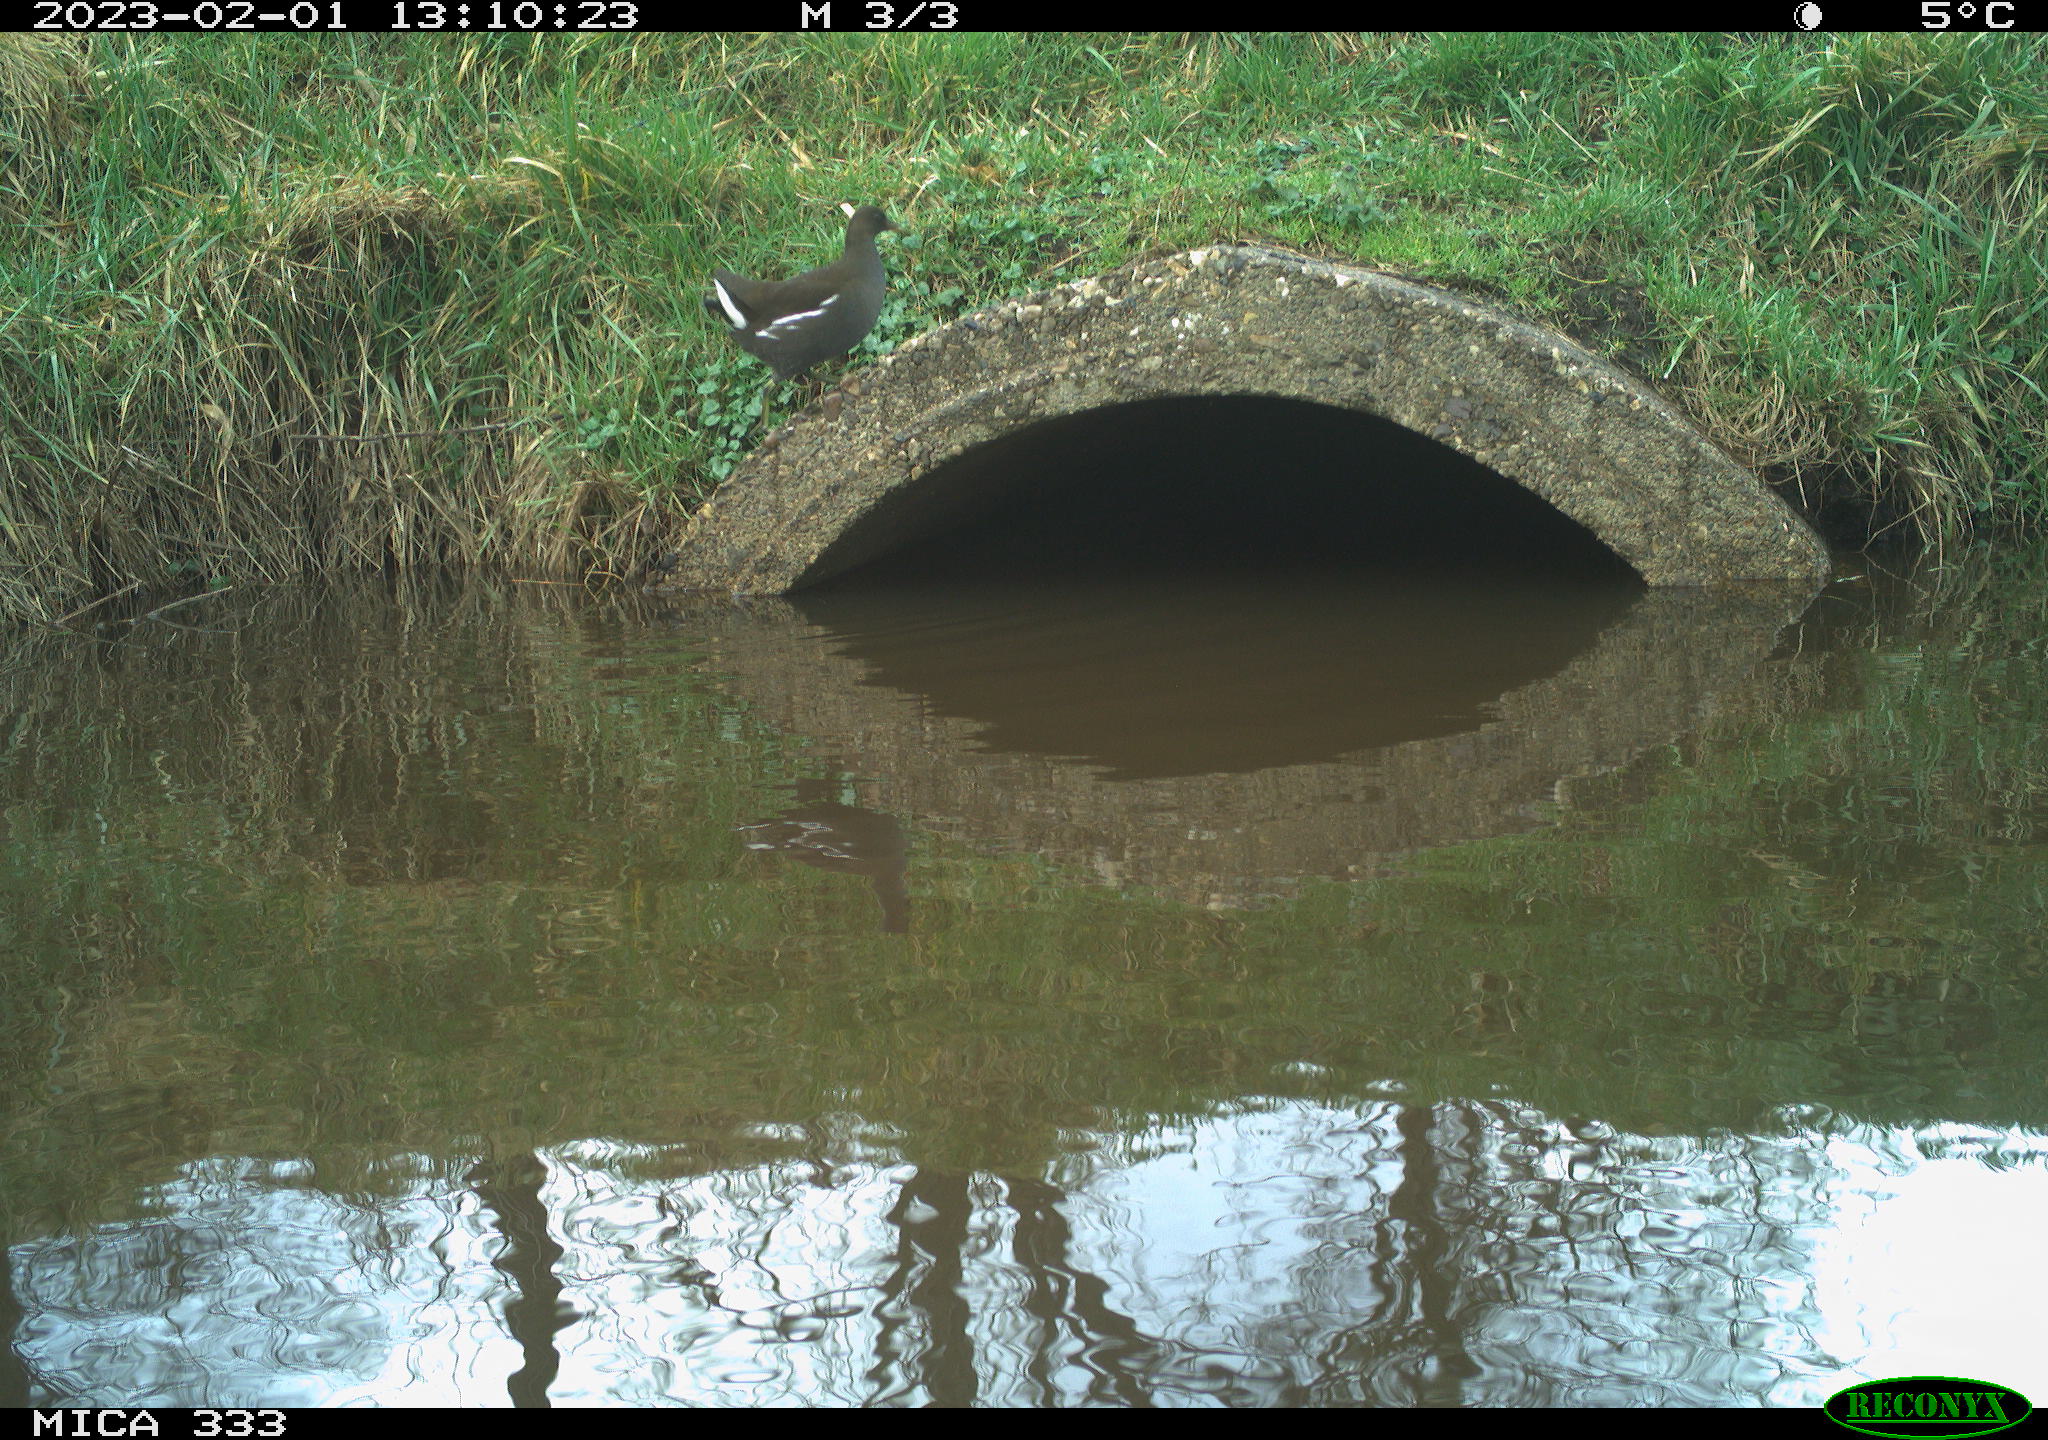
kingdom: Animalia
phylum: Chordata
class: Aves
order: Gruiformes
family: Rallidae
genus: Gallinula
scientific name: Gallinula chloropus
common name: Common moorhen
